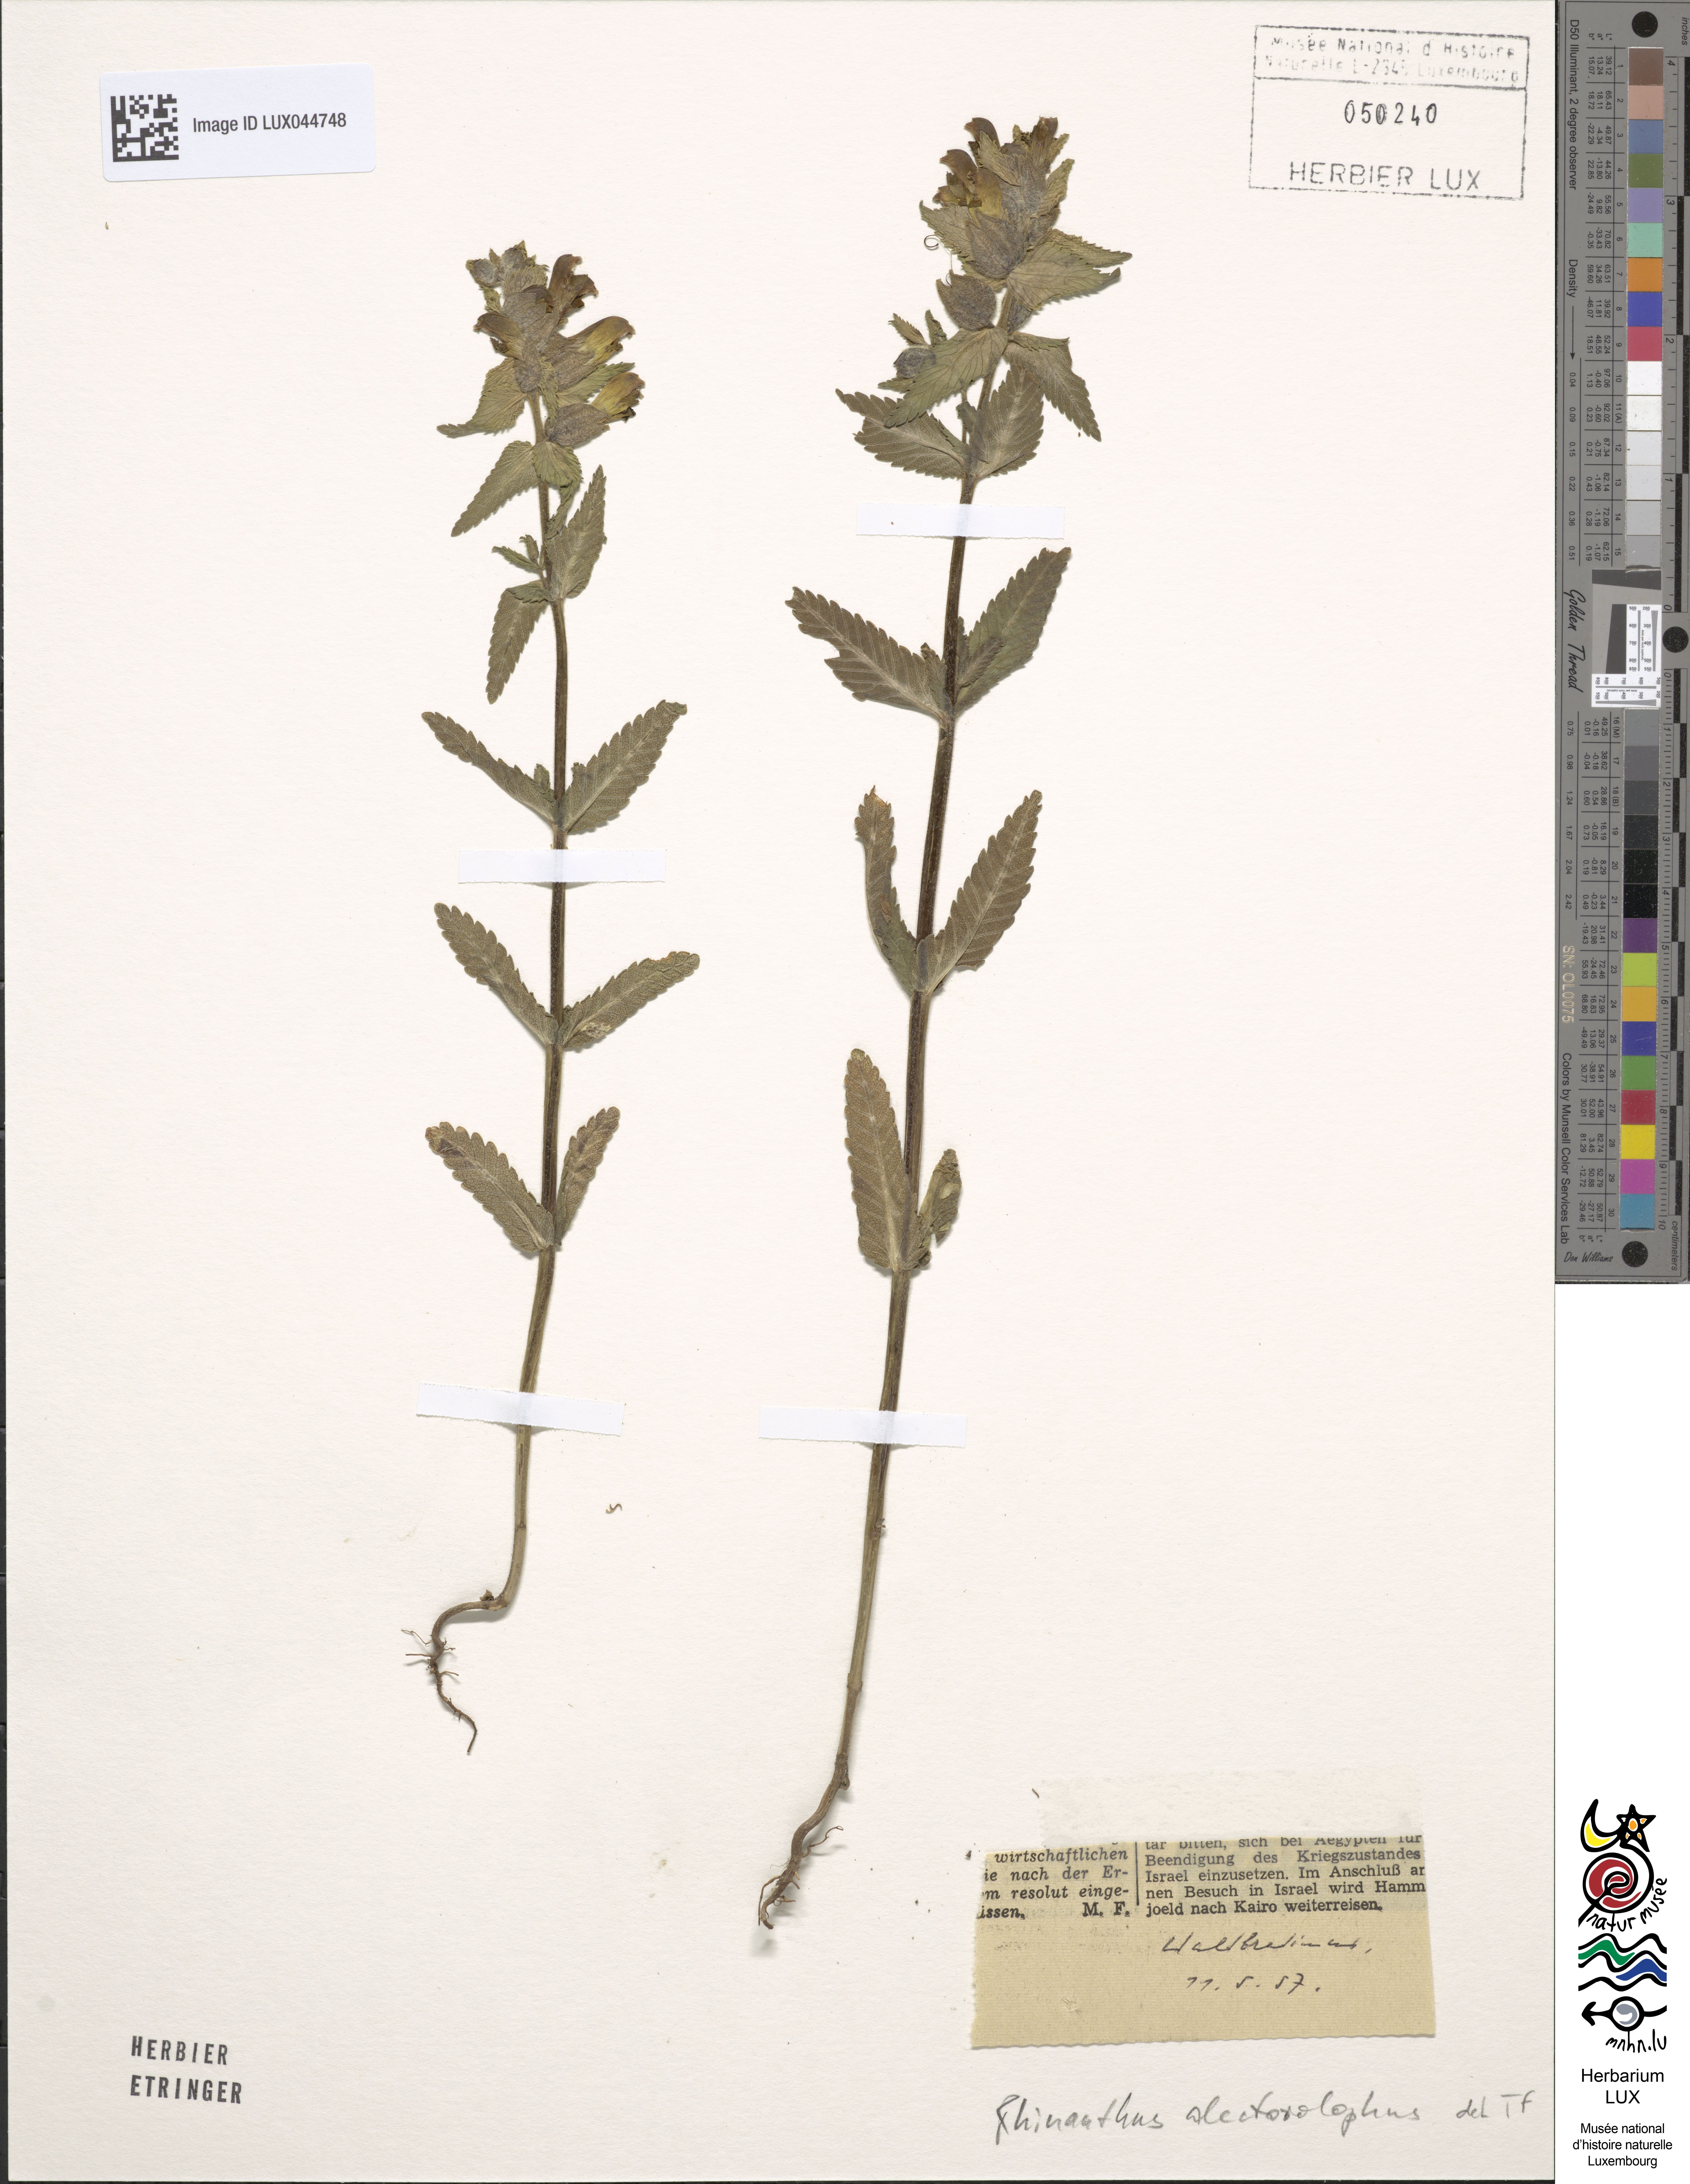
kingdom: Plantae
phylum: Tracheophyta
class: Magnoliopsida
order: Lamiales
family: Orobanchaceae
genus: Rhinanthus
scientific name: Rhinanthus alectorolophus
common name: Greater yellow-rattle
